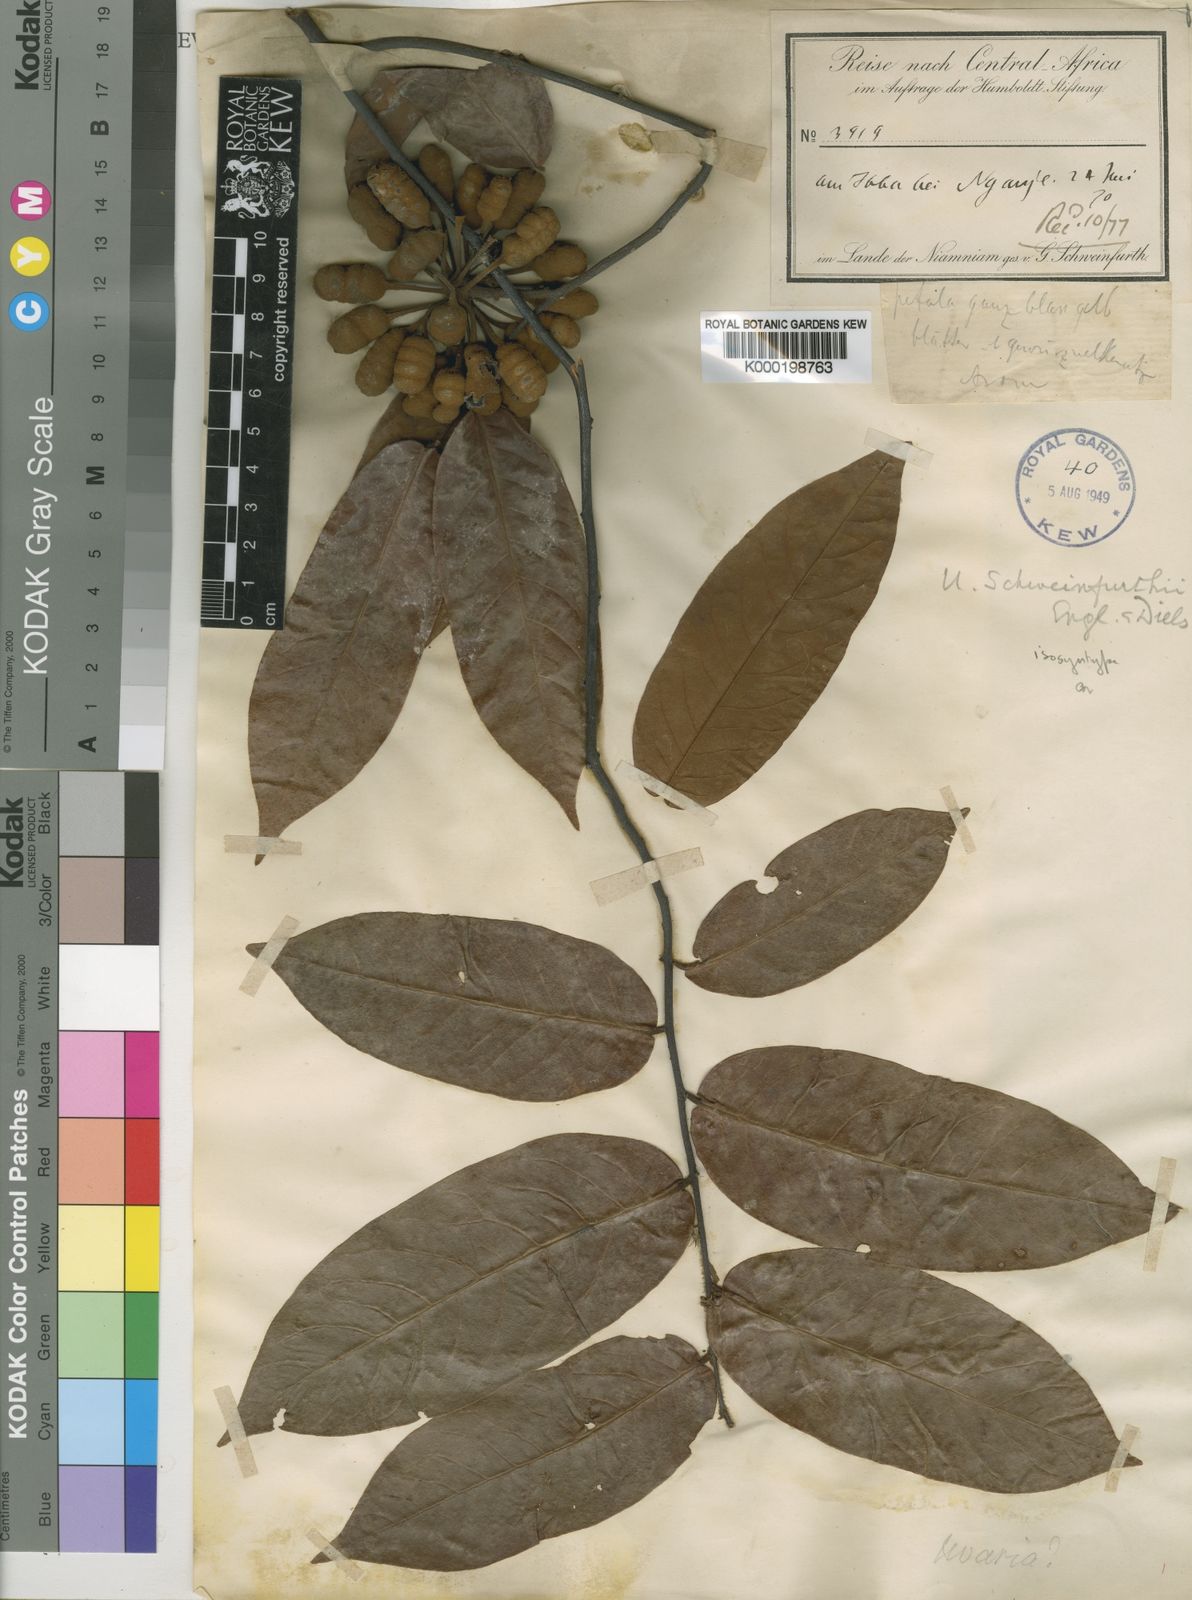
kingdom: Plantae
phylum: Tracheophyta
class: Magnoliopsida
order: Magnoliales
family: Annonaceae
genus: Uvaria
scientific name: Uvaria schweinfurthii
